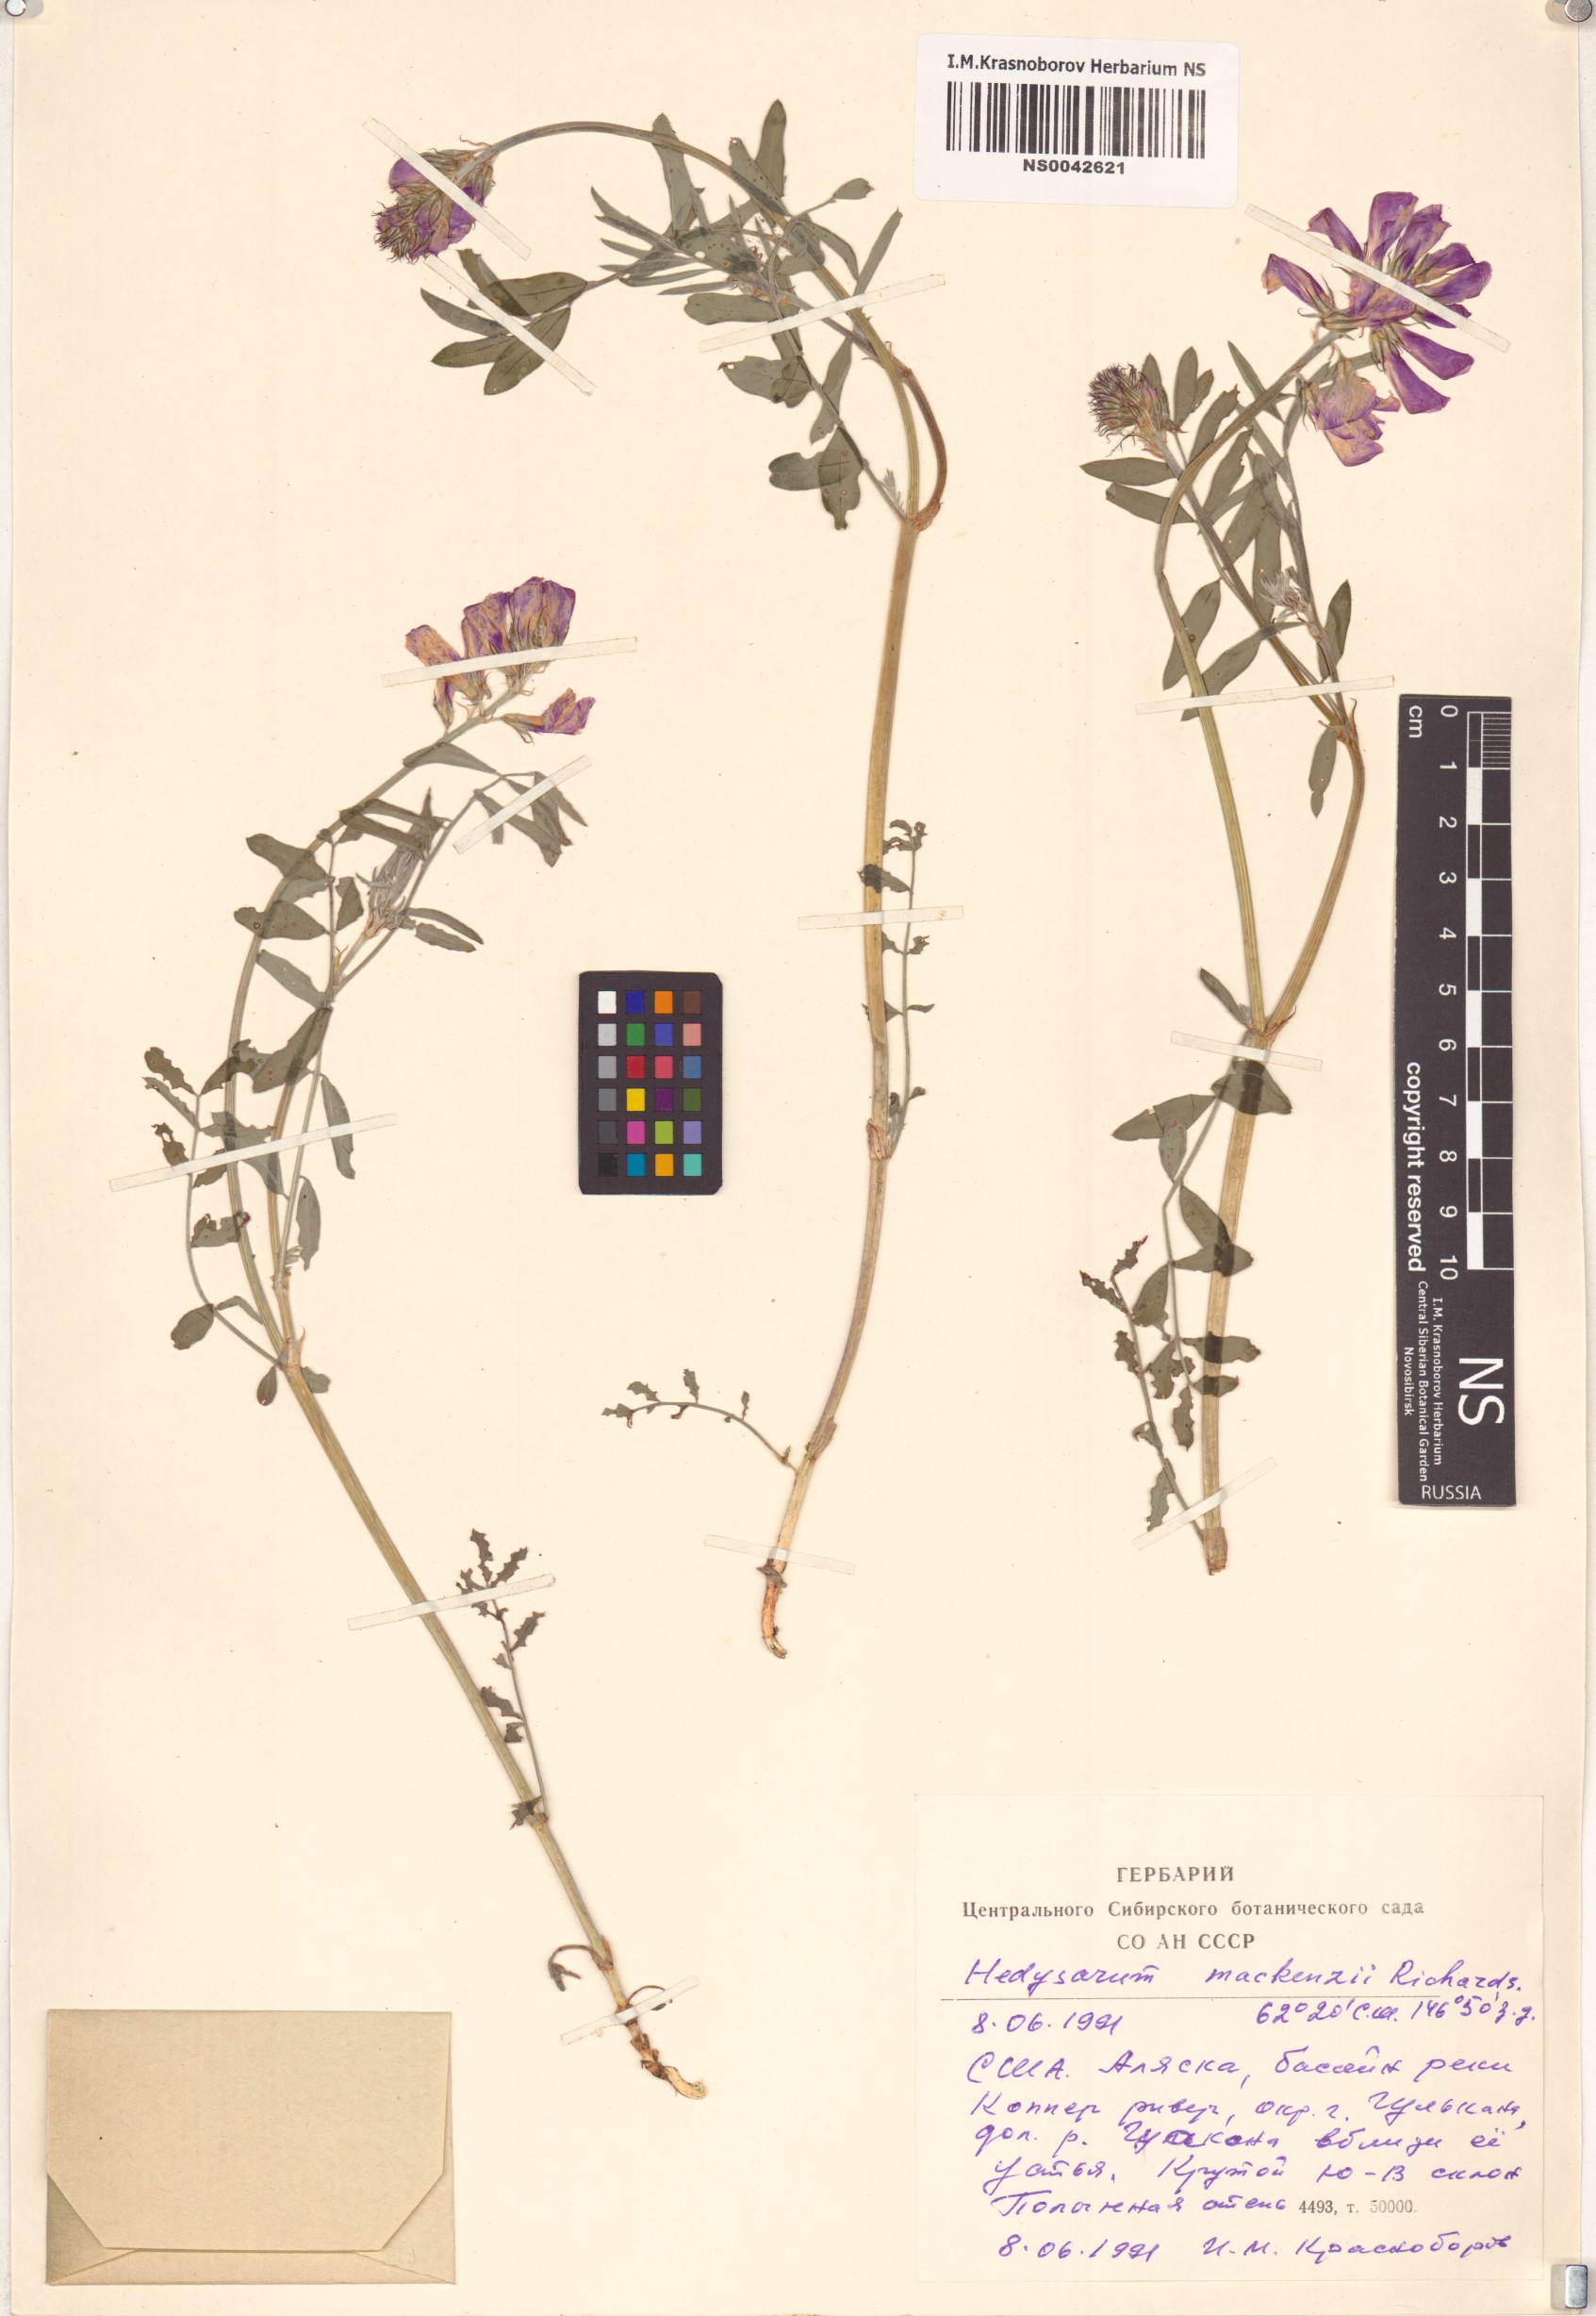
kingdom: Plantae
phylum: Tracheophyta
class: Magnoliopsida
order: Fabales
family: Fabaceae
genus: Hedysarum
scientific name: Hedysarum boreale
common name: Northern sweet-vetch
